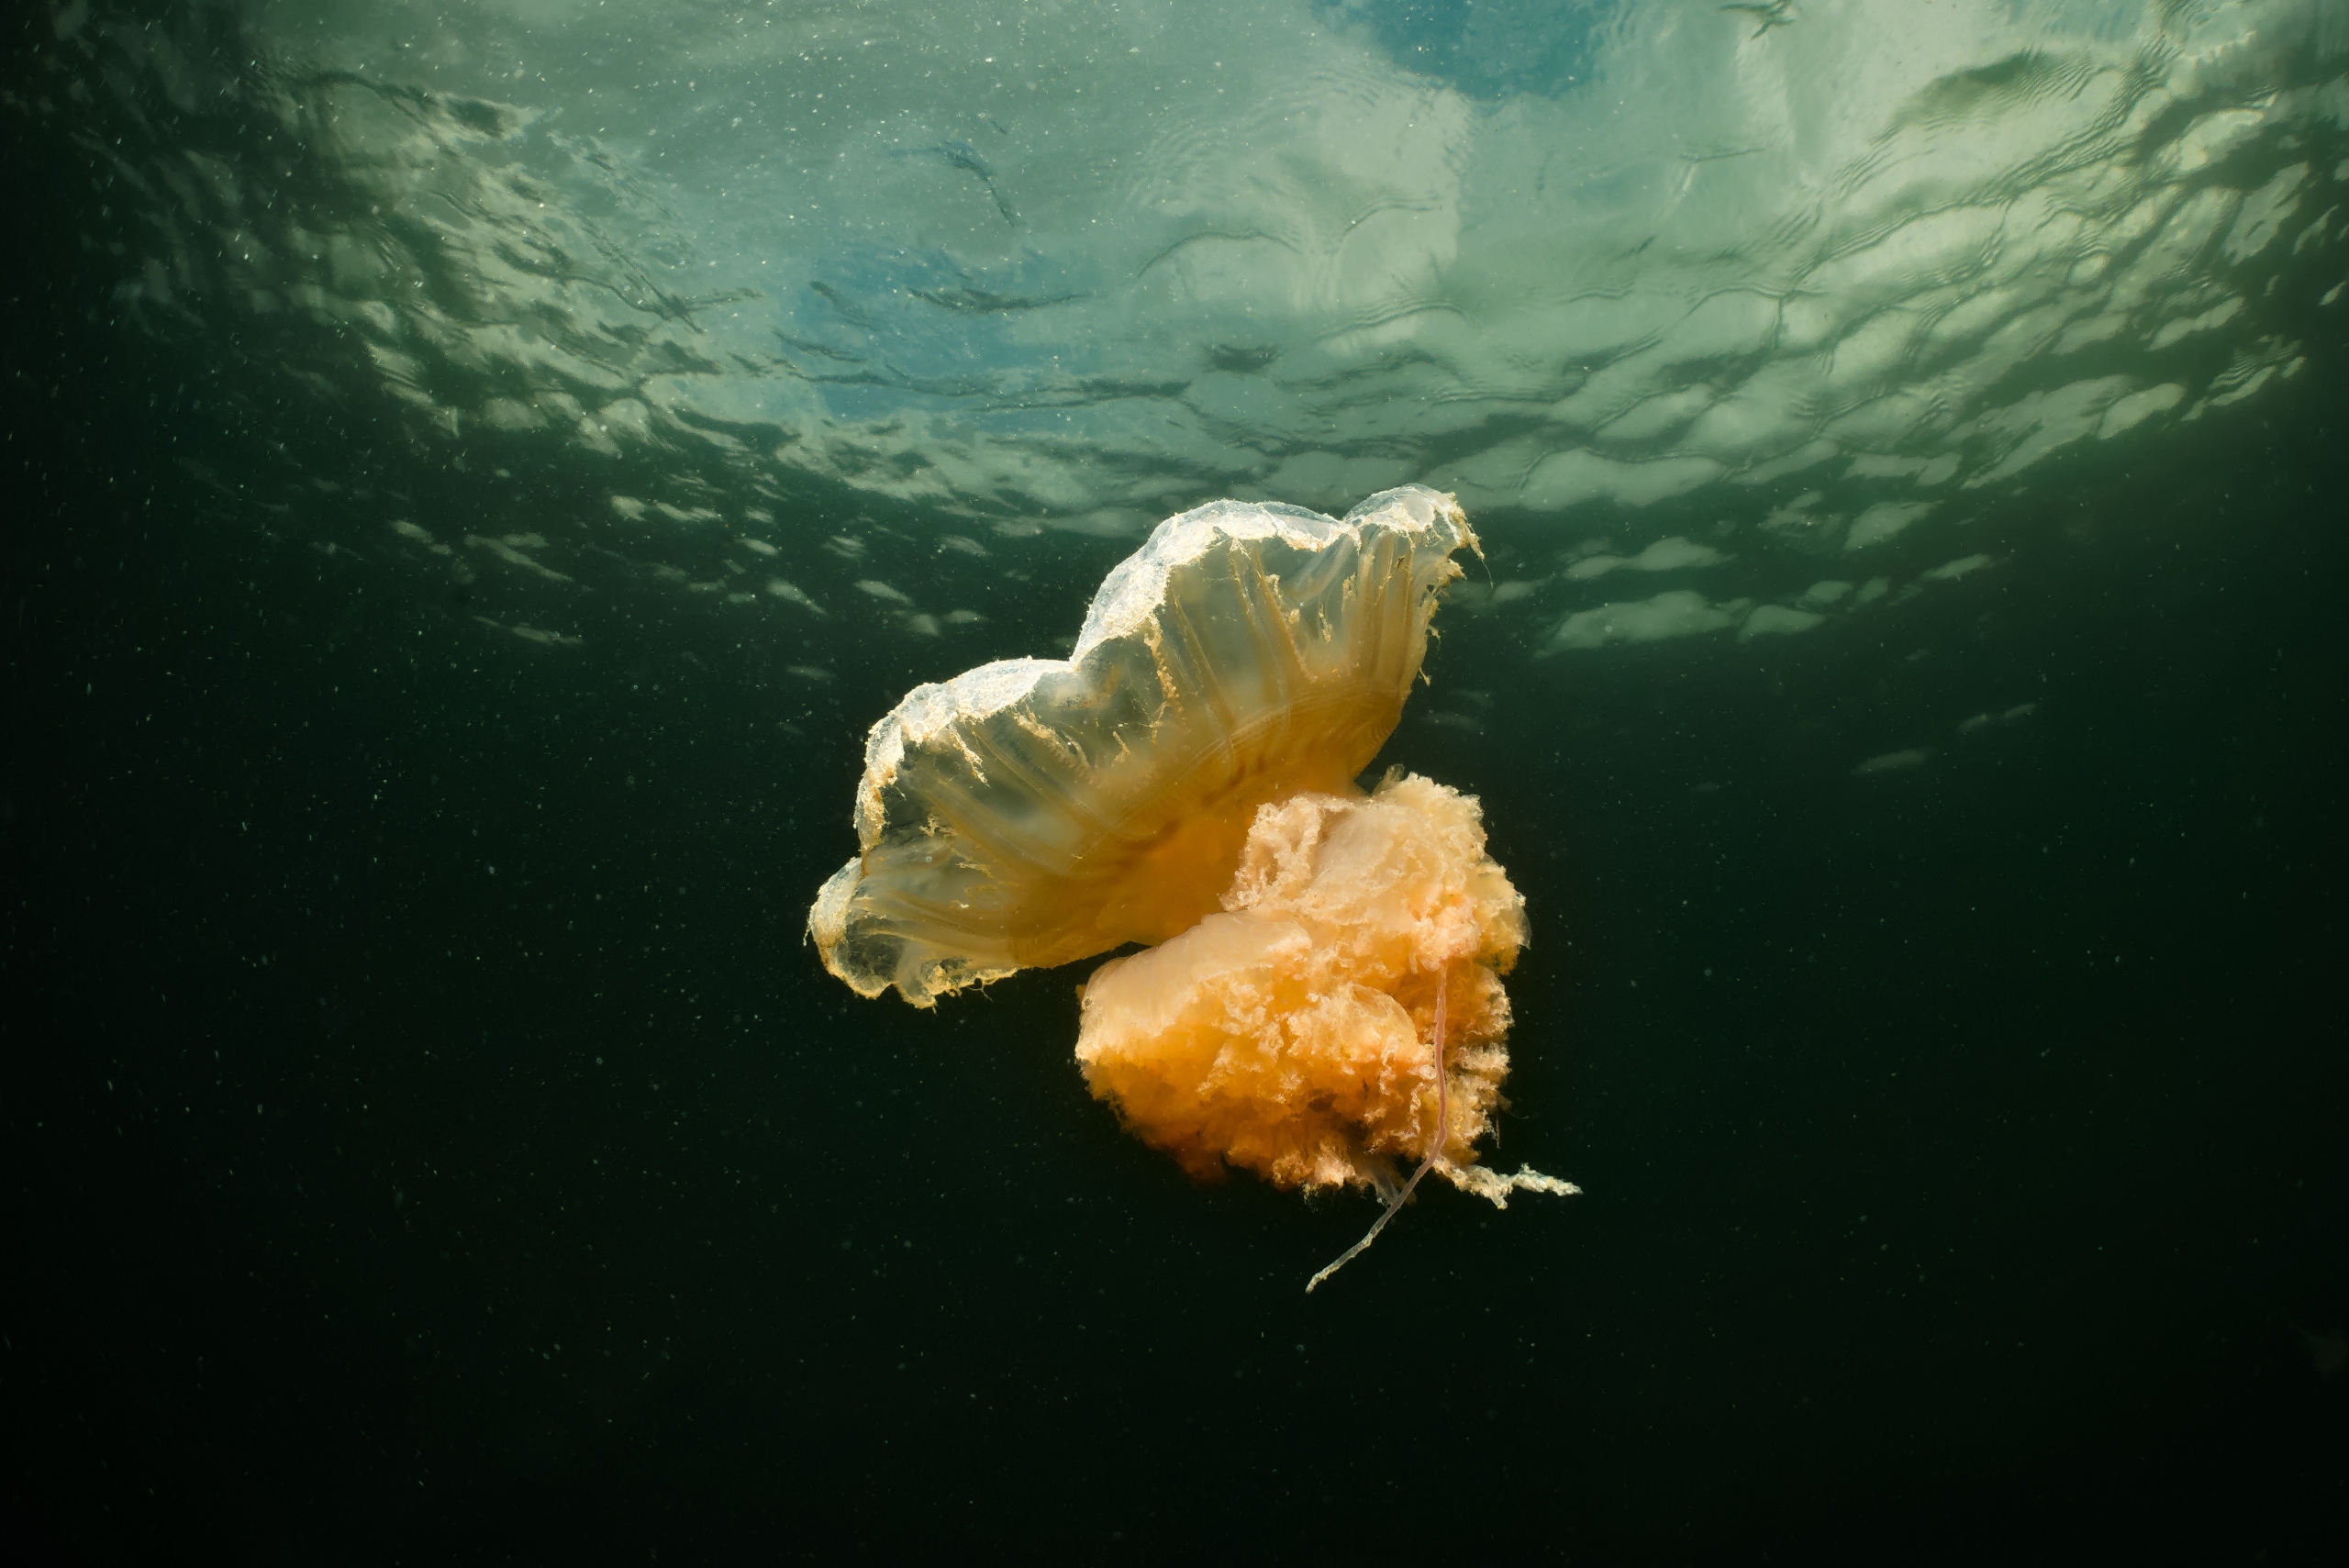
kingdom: Animalia
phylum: Cnidaria
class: Scyphozoa
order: Semaeostomeae
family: Cyaneidae
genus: Cyanea
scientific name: Cyanea capillata
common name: Rød brandmand
